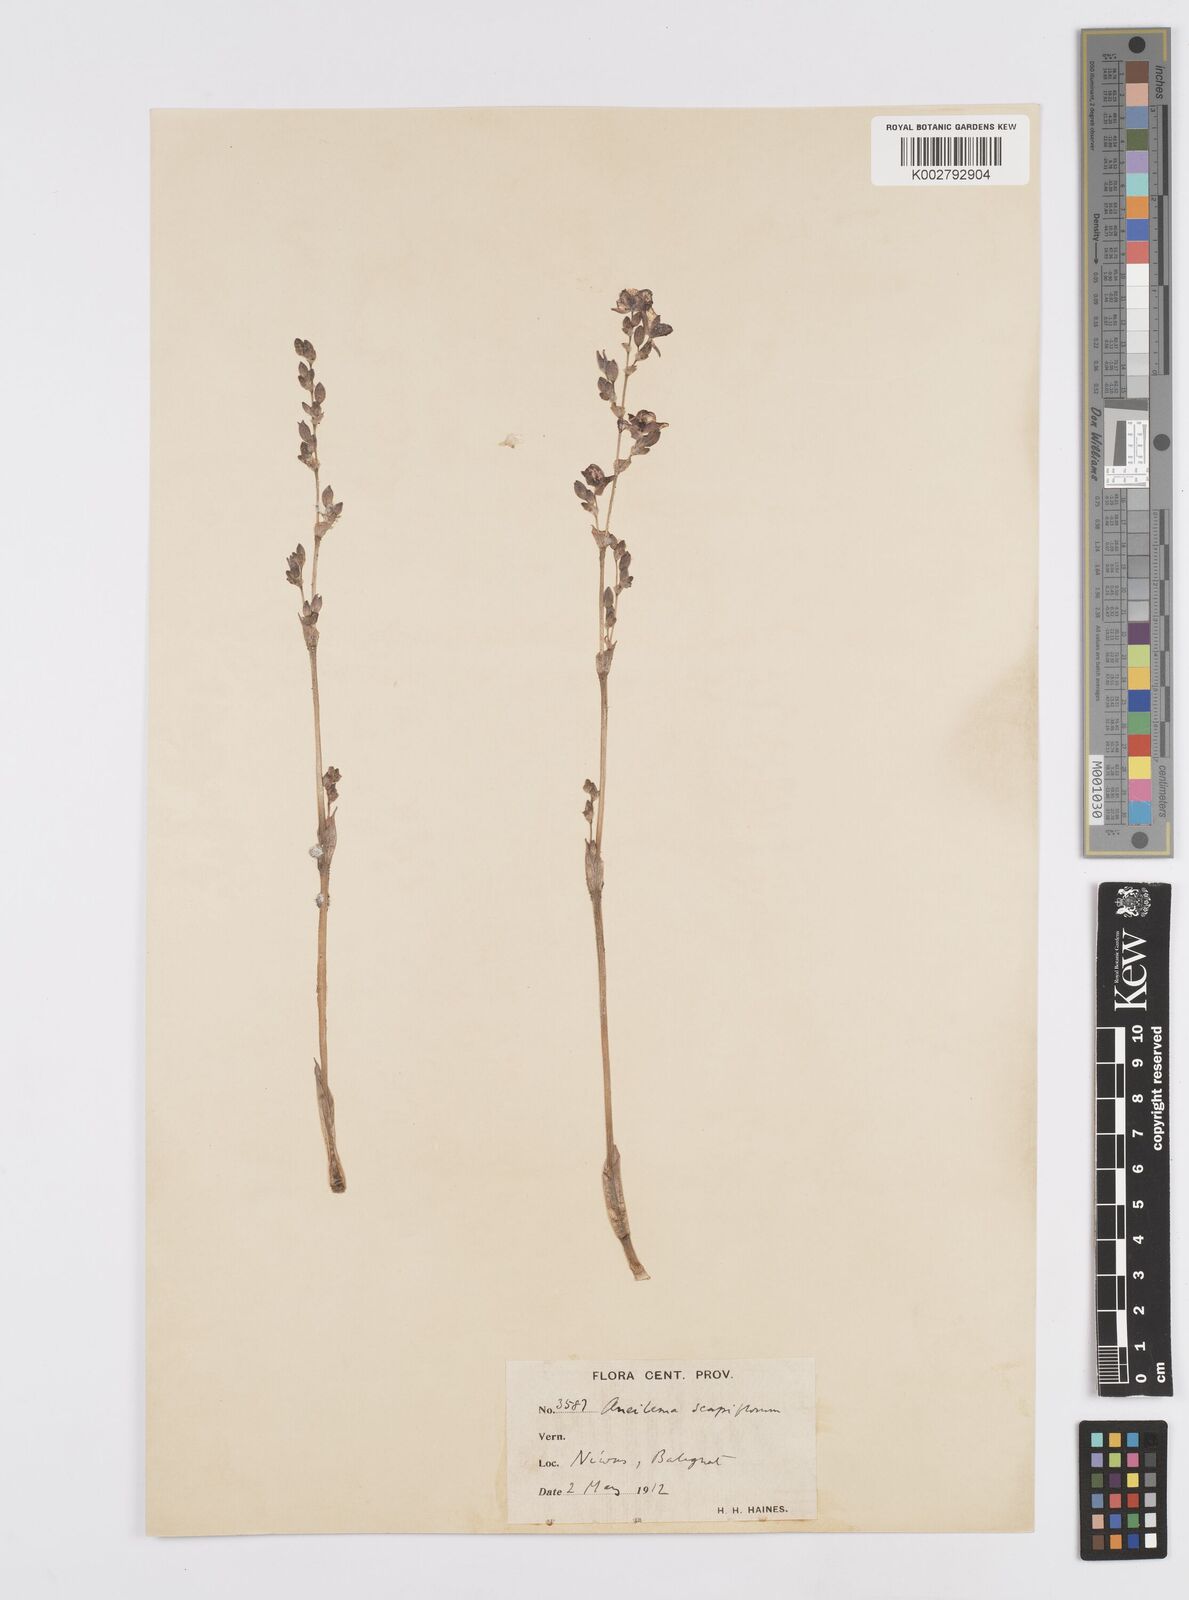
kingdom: Plantae
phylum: Tracheophyta
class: Liliopsida
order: Commelinales
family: Commelinaceae
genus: Murdannia
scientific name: Murdannia edulis
